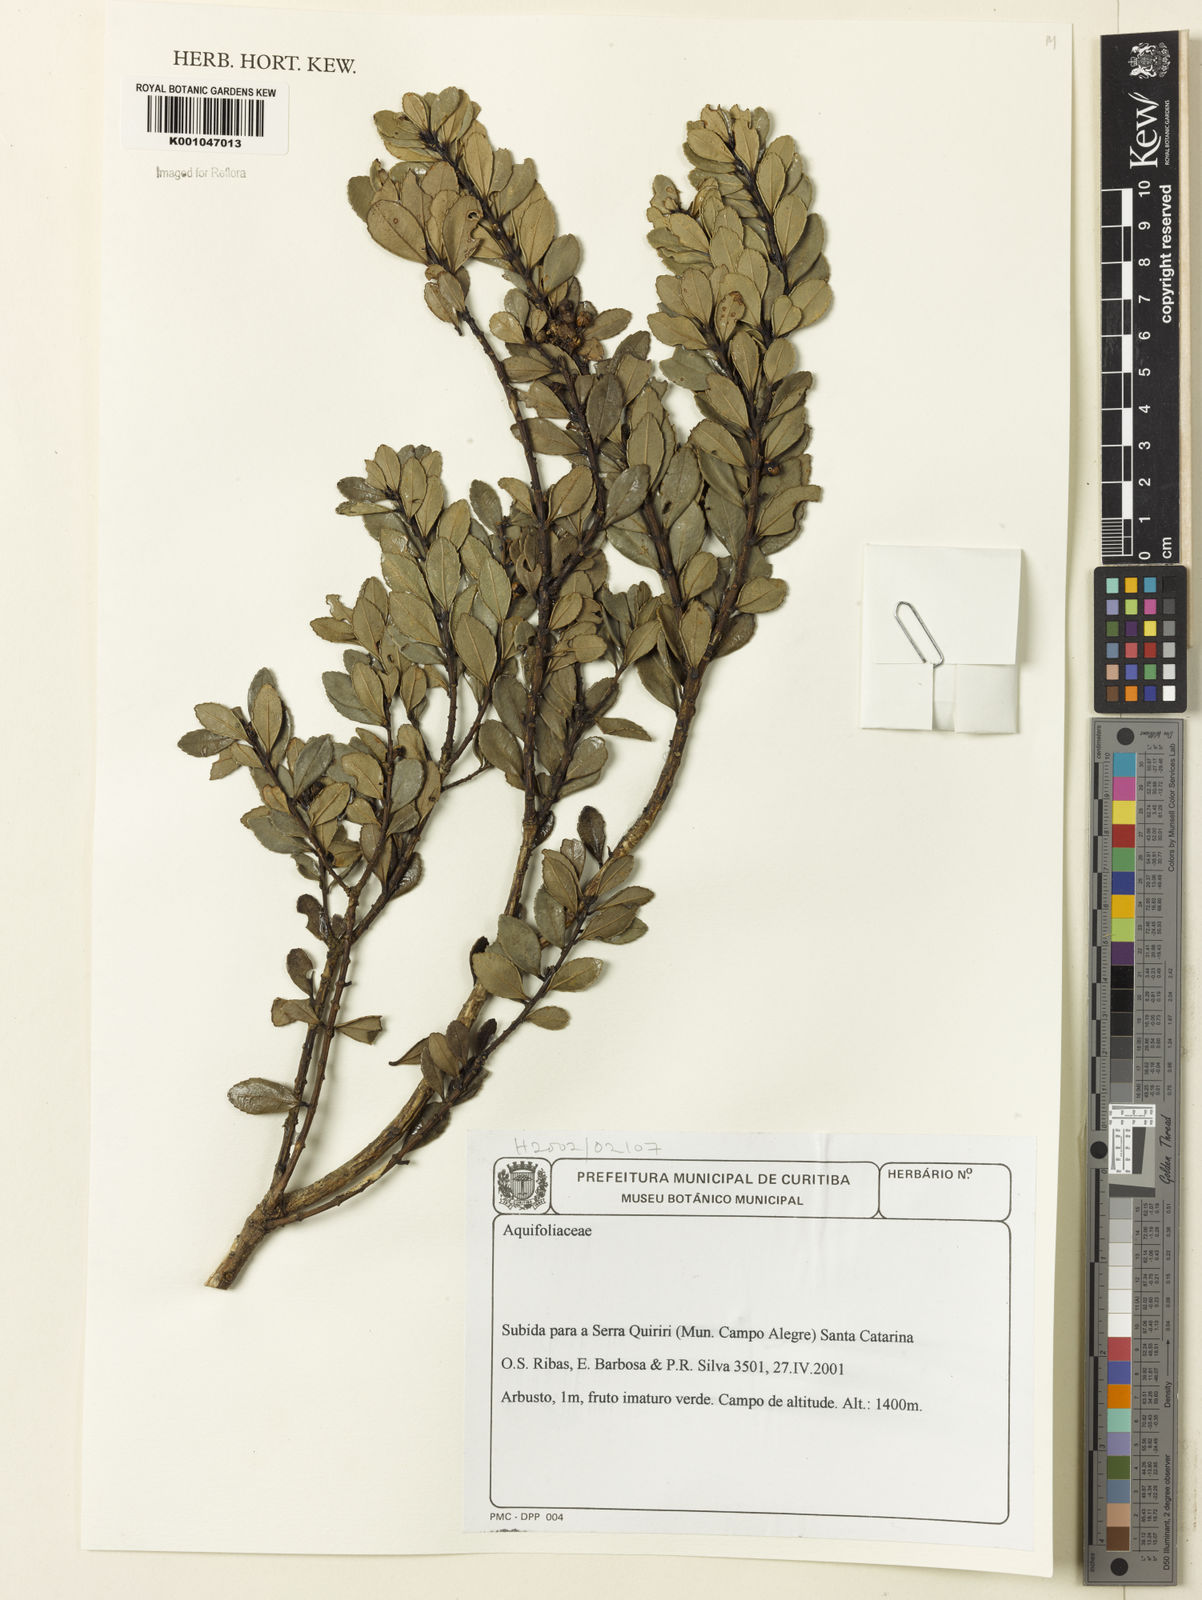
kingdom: Plantae
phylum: Tracheophyta
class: Magnoliopsida
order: Aquifoliales
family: Aquifoliaceae
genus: Ilex
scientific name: Ilex
